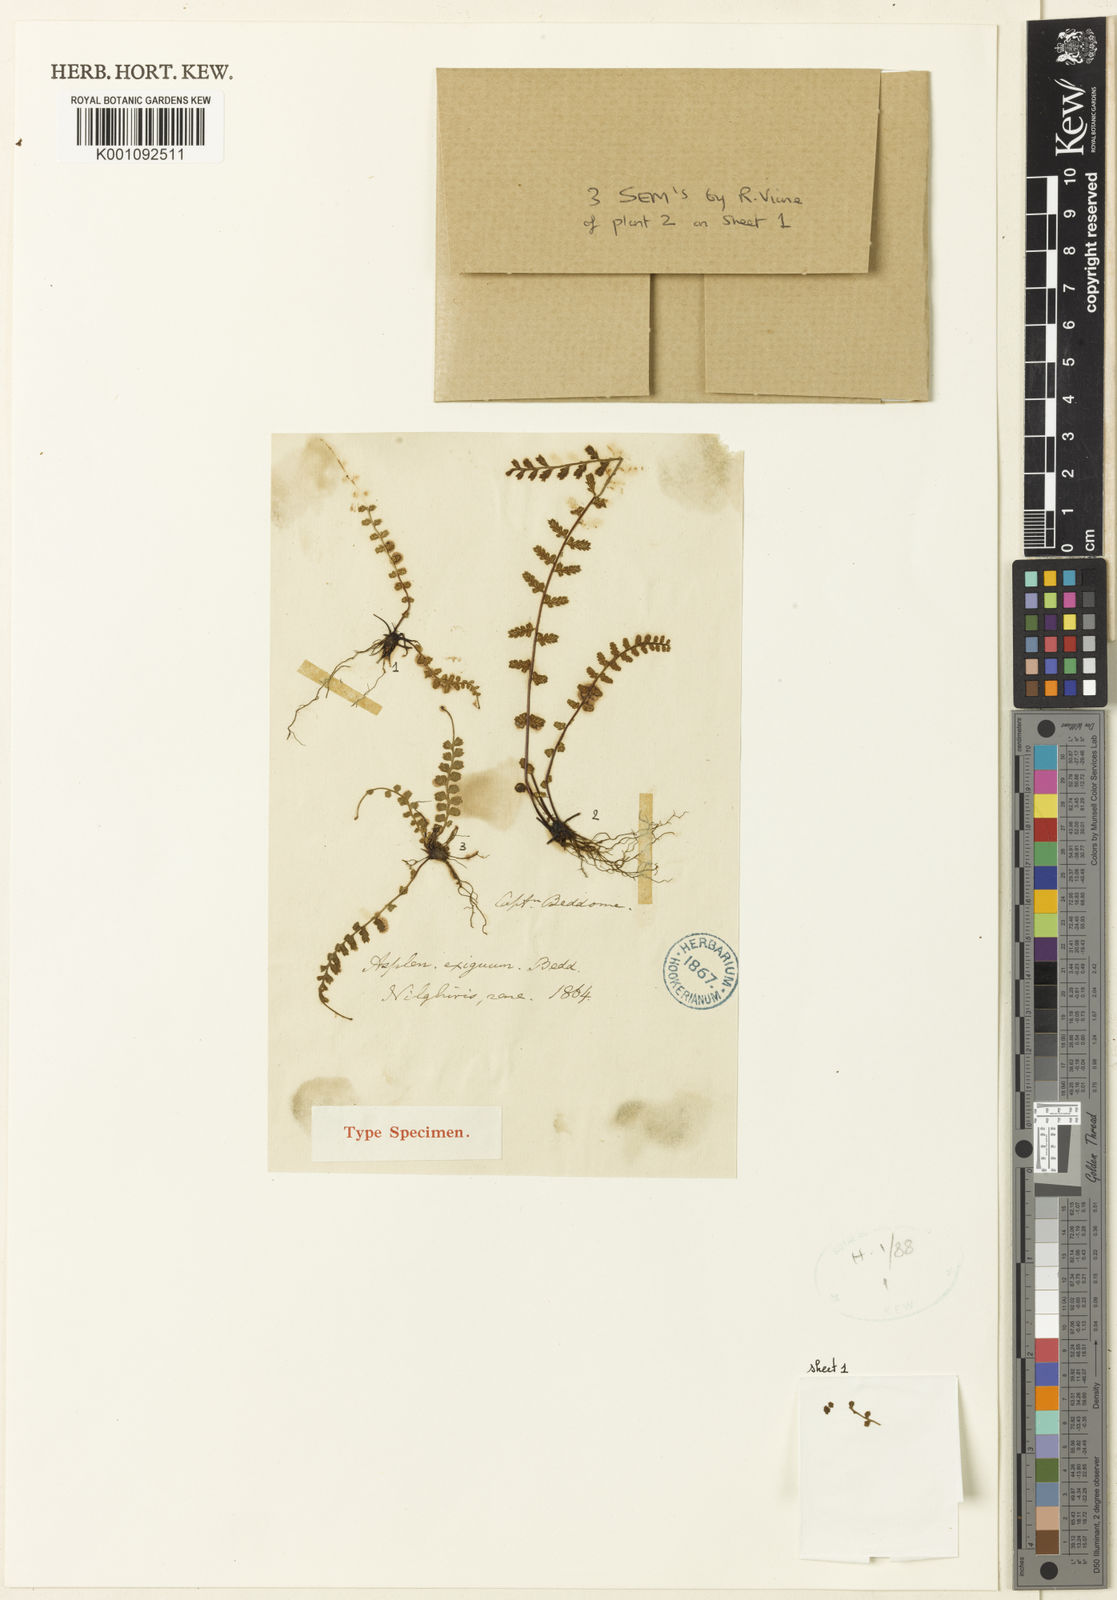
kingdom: Plantae
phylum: Tracheophyta
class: Polypodiopsida
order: Polypodiales
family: Aspleniaceae
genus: Asplenium
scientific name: Asplenium exiguum
